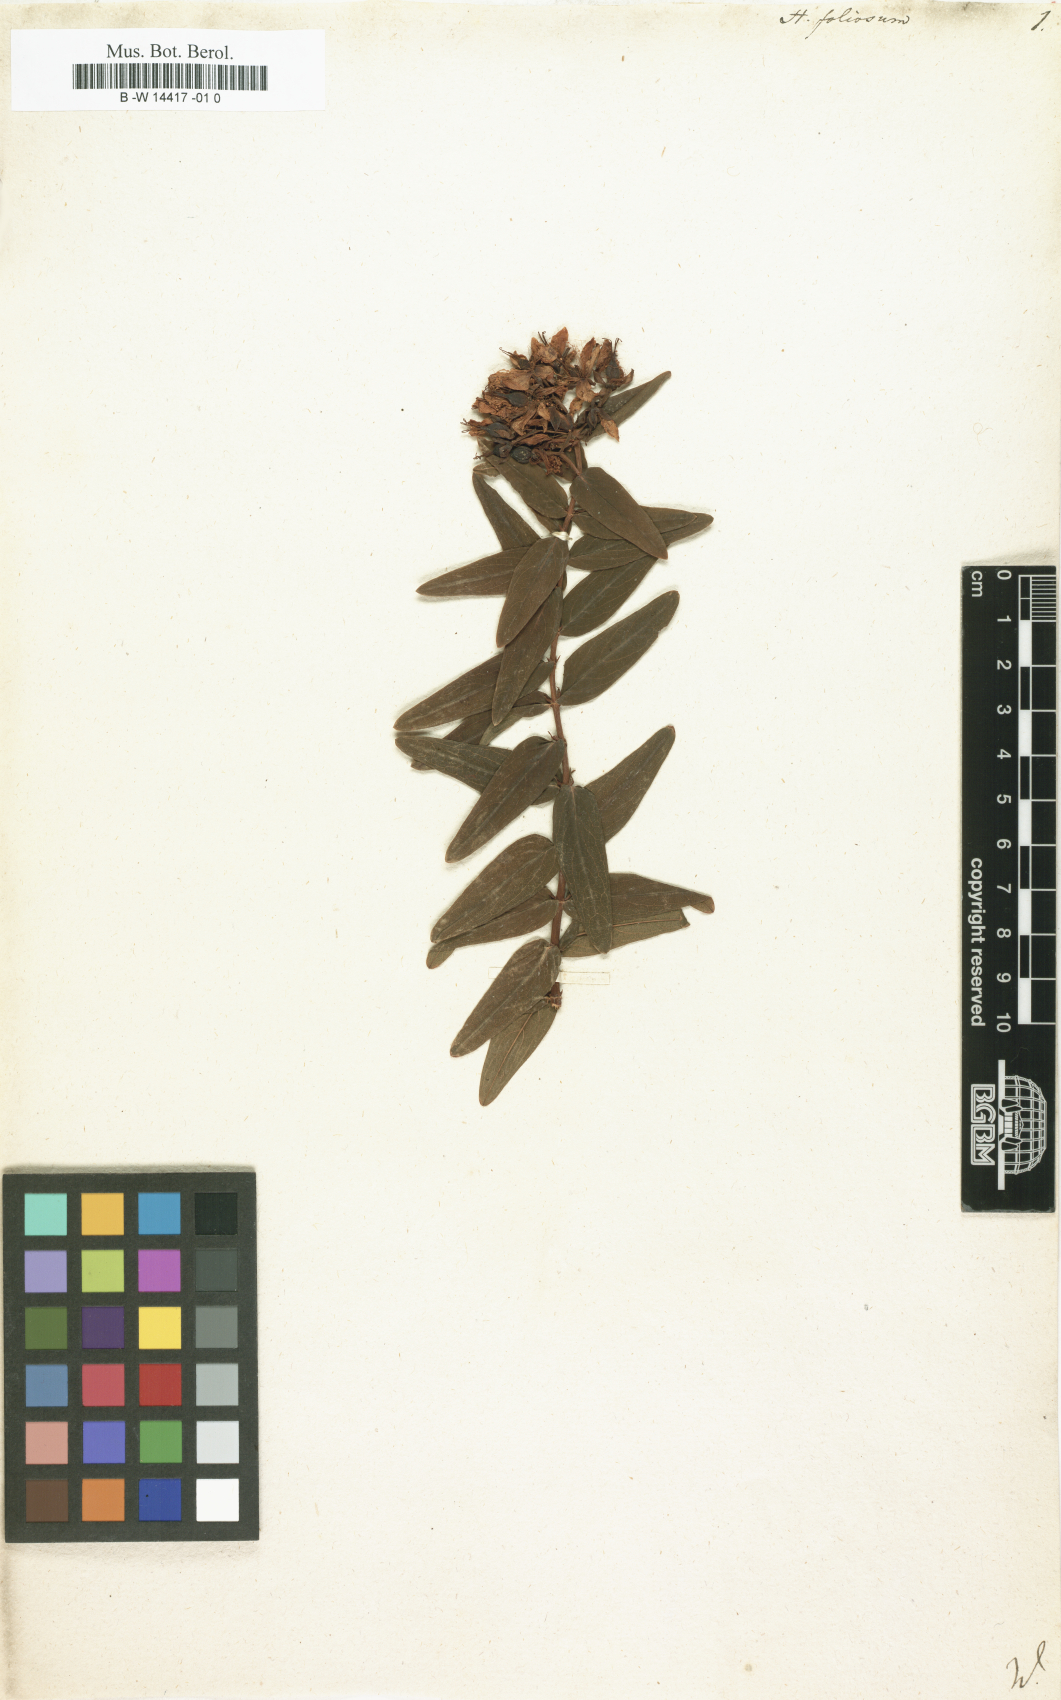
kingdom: Plantae
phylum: Tracheophyta
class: Magnoliopsida
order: Malpighiales
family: Hypericaceae
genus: Hypericum
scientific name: Hypericum foliosum
